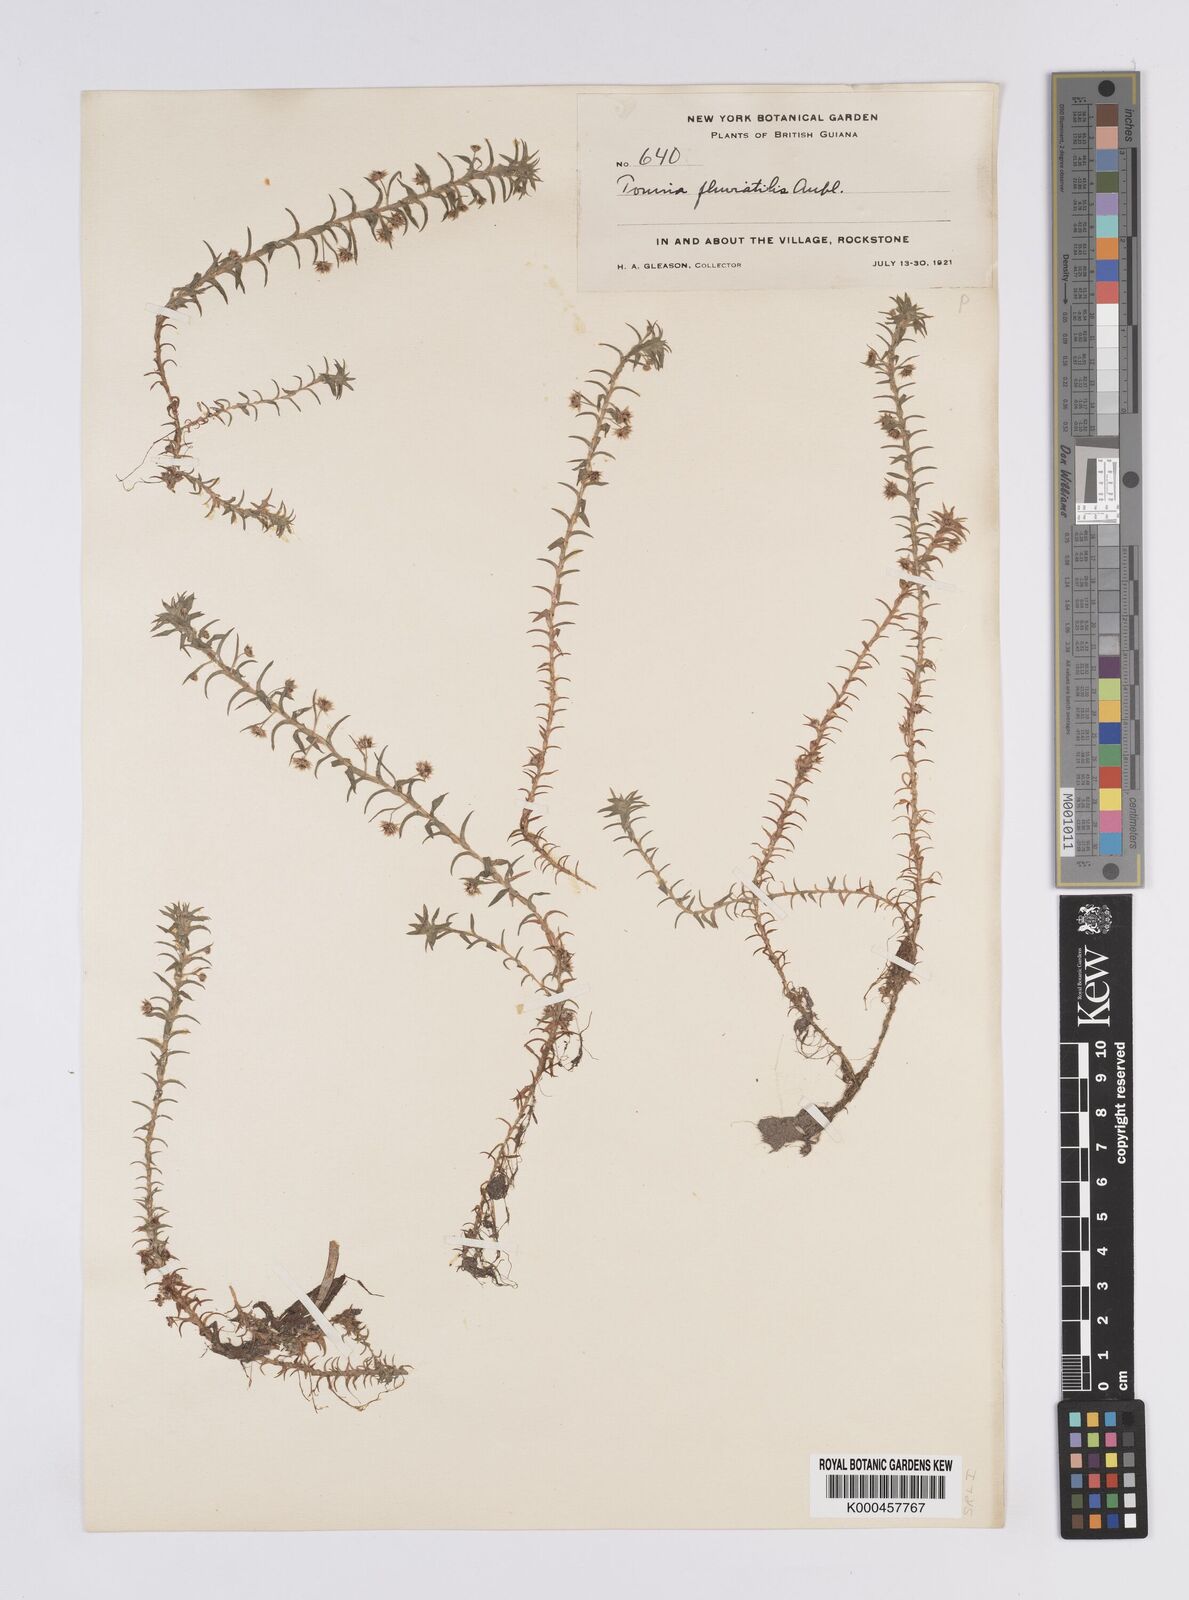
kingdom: Plantae
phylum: Tracheophyta
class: Liliopsida
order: Poales
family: Eriocaulaceae
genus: Paepalanthus
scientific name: Paepalanthus fluviatilis
